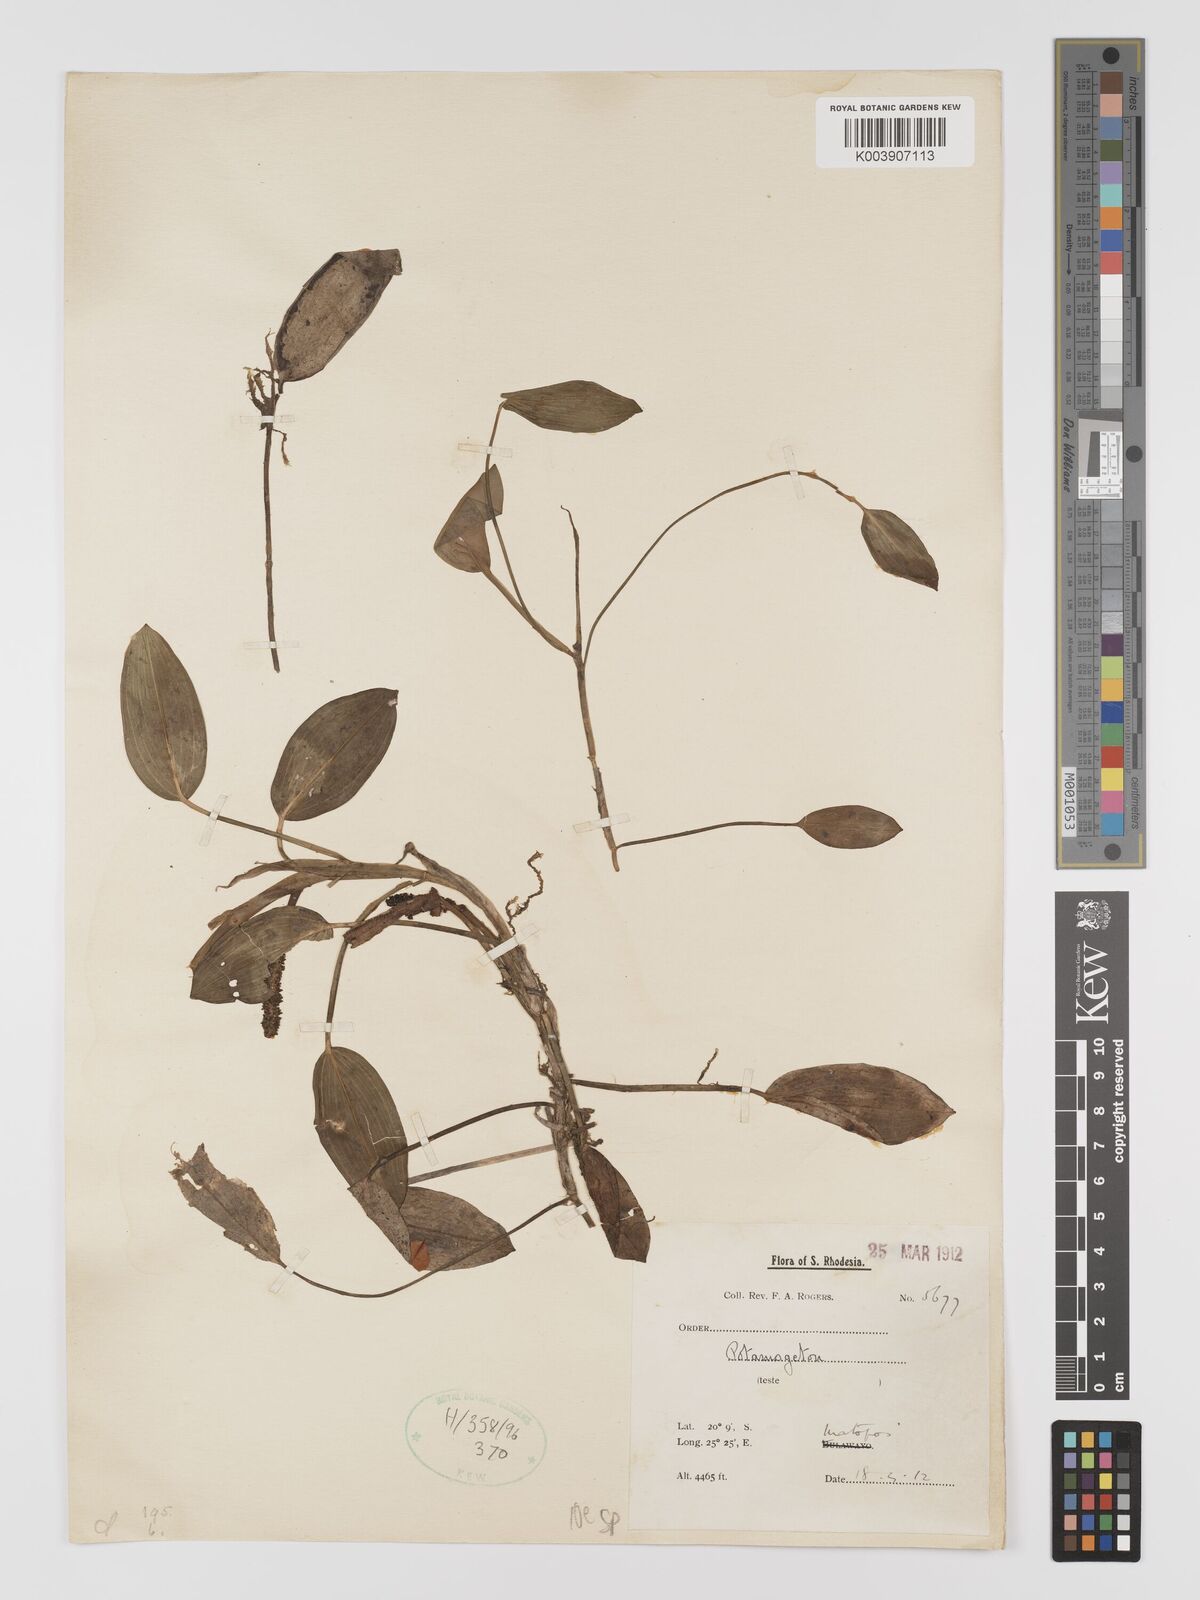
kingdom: Plantae
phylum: Tracheophyta
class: Liliopsida
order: Alismatales
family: Potamogetonaceae
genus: Potamogeton
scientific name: Potamogeton
